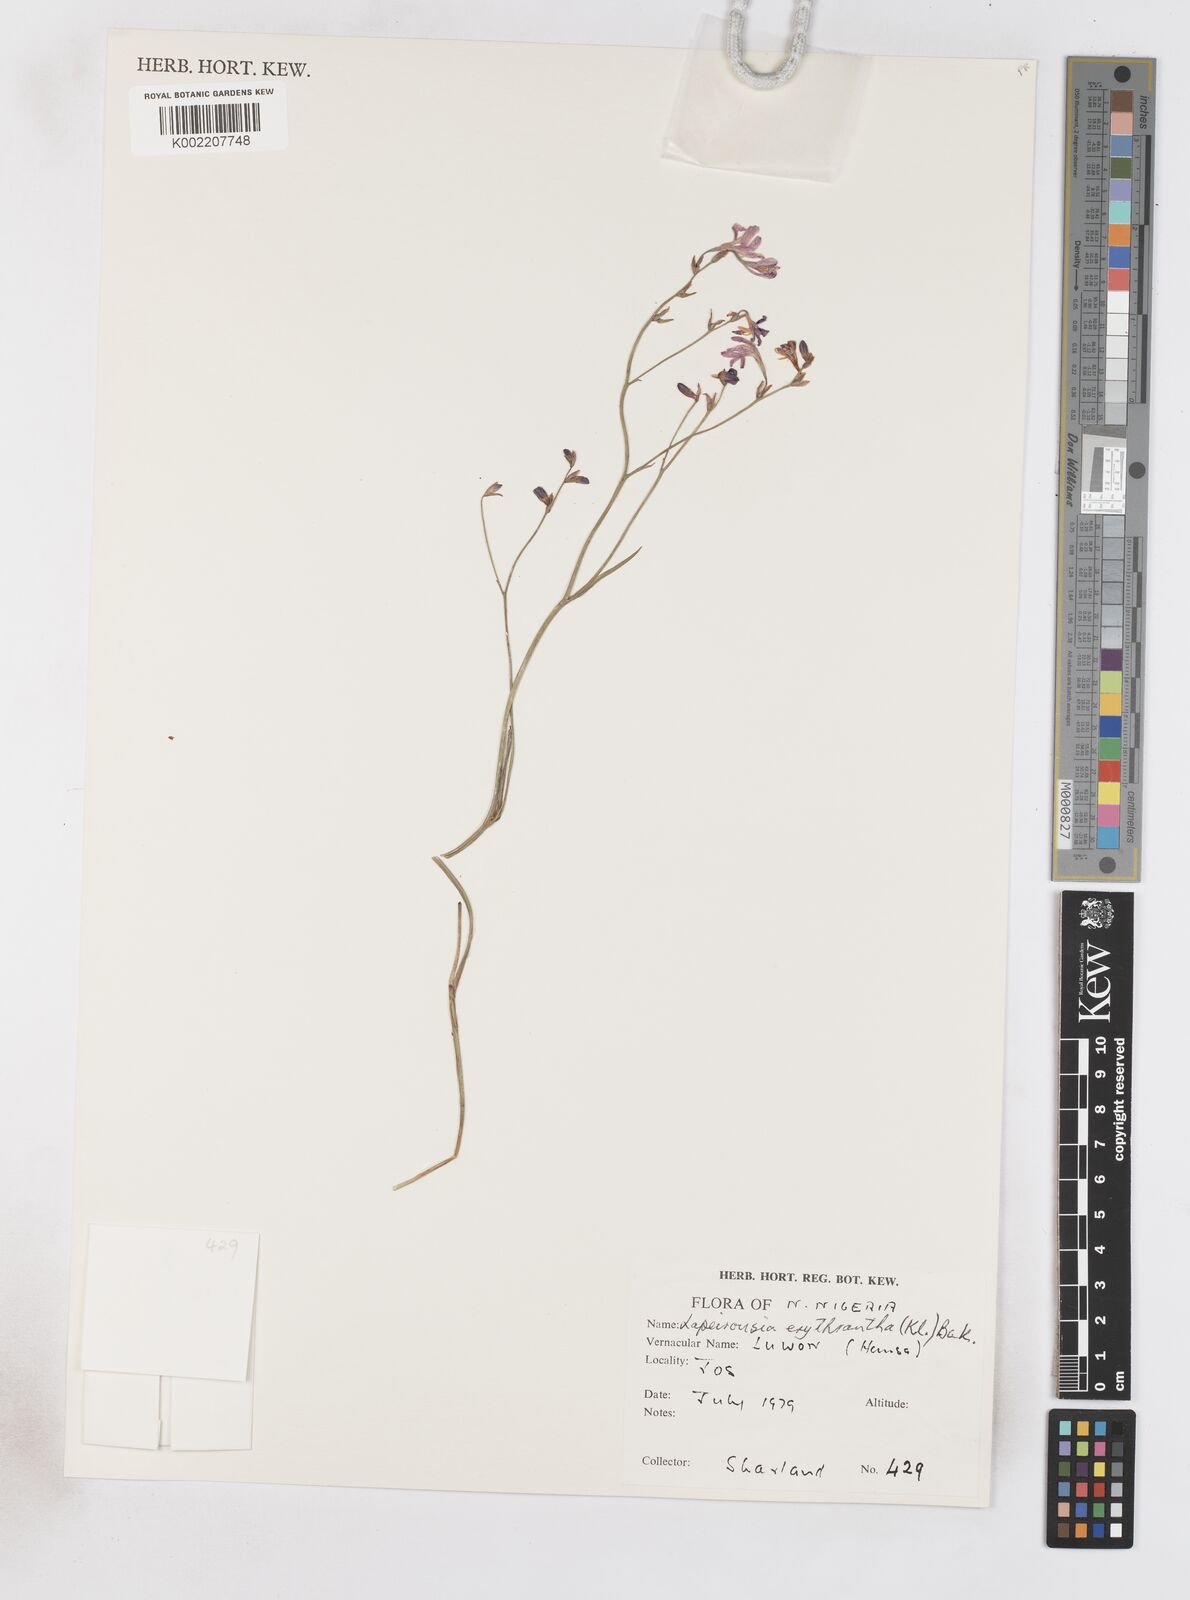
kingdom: Plantae
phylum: Tracheophyta
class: Liliopsida
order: Asparagales
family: Iridaceae
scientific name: Iridaceae
